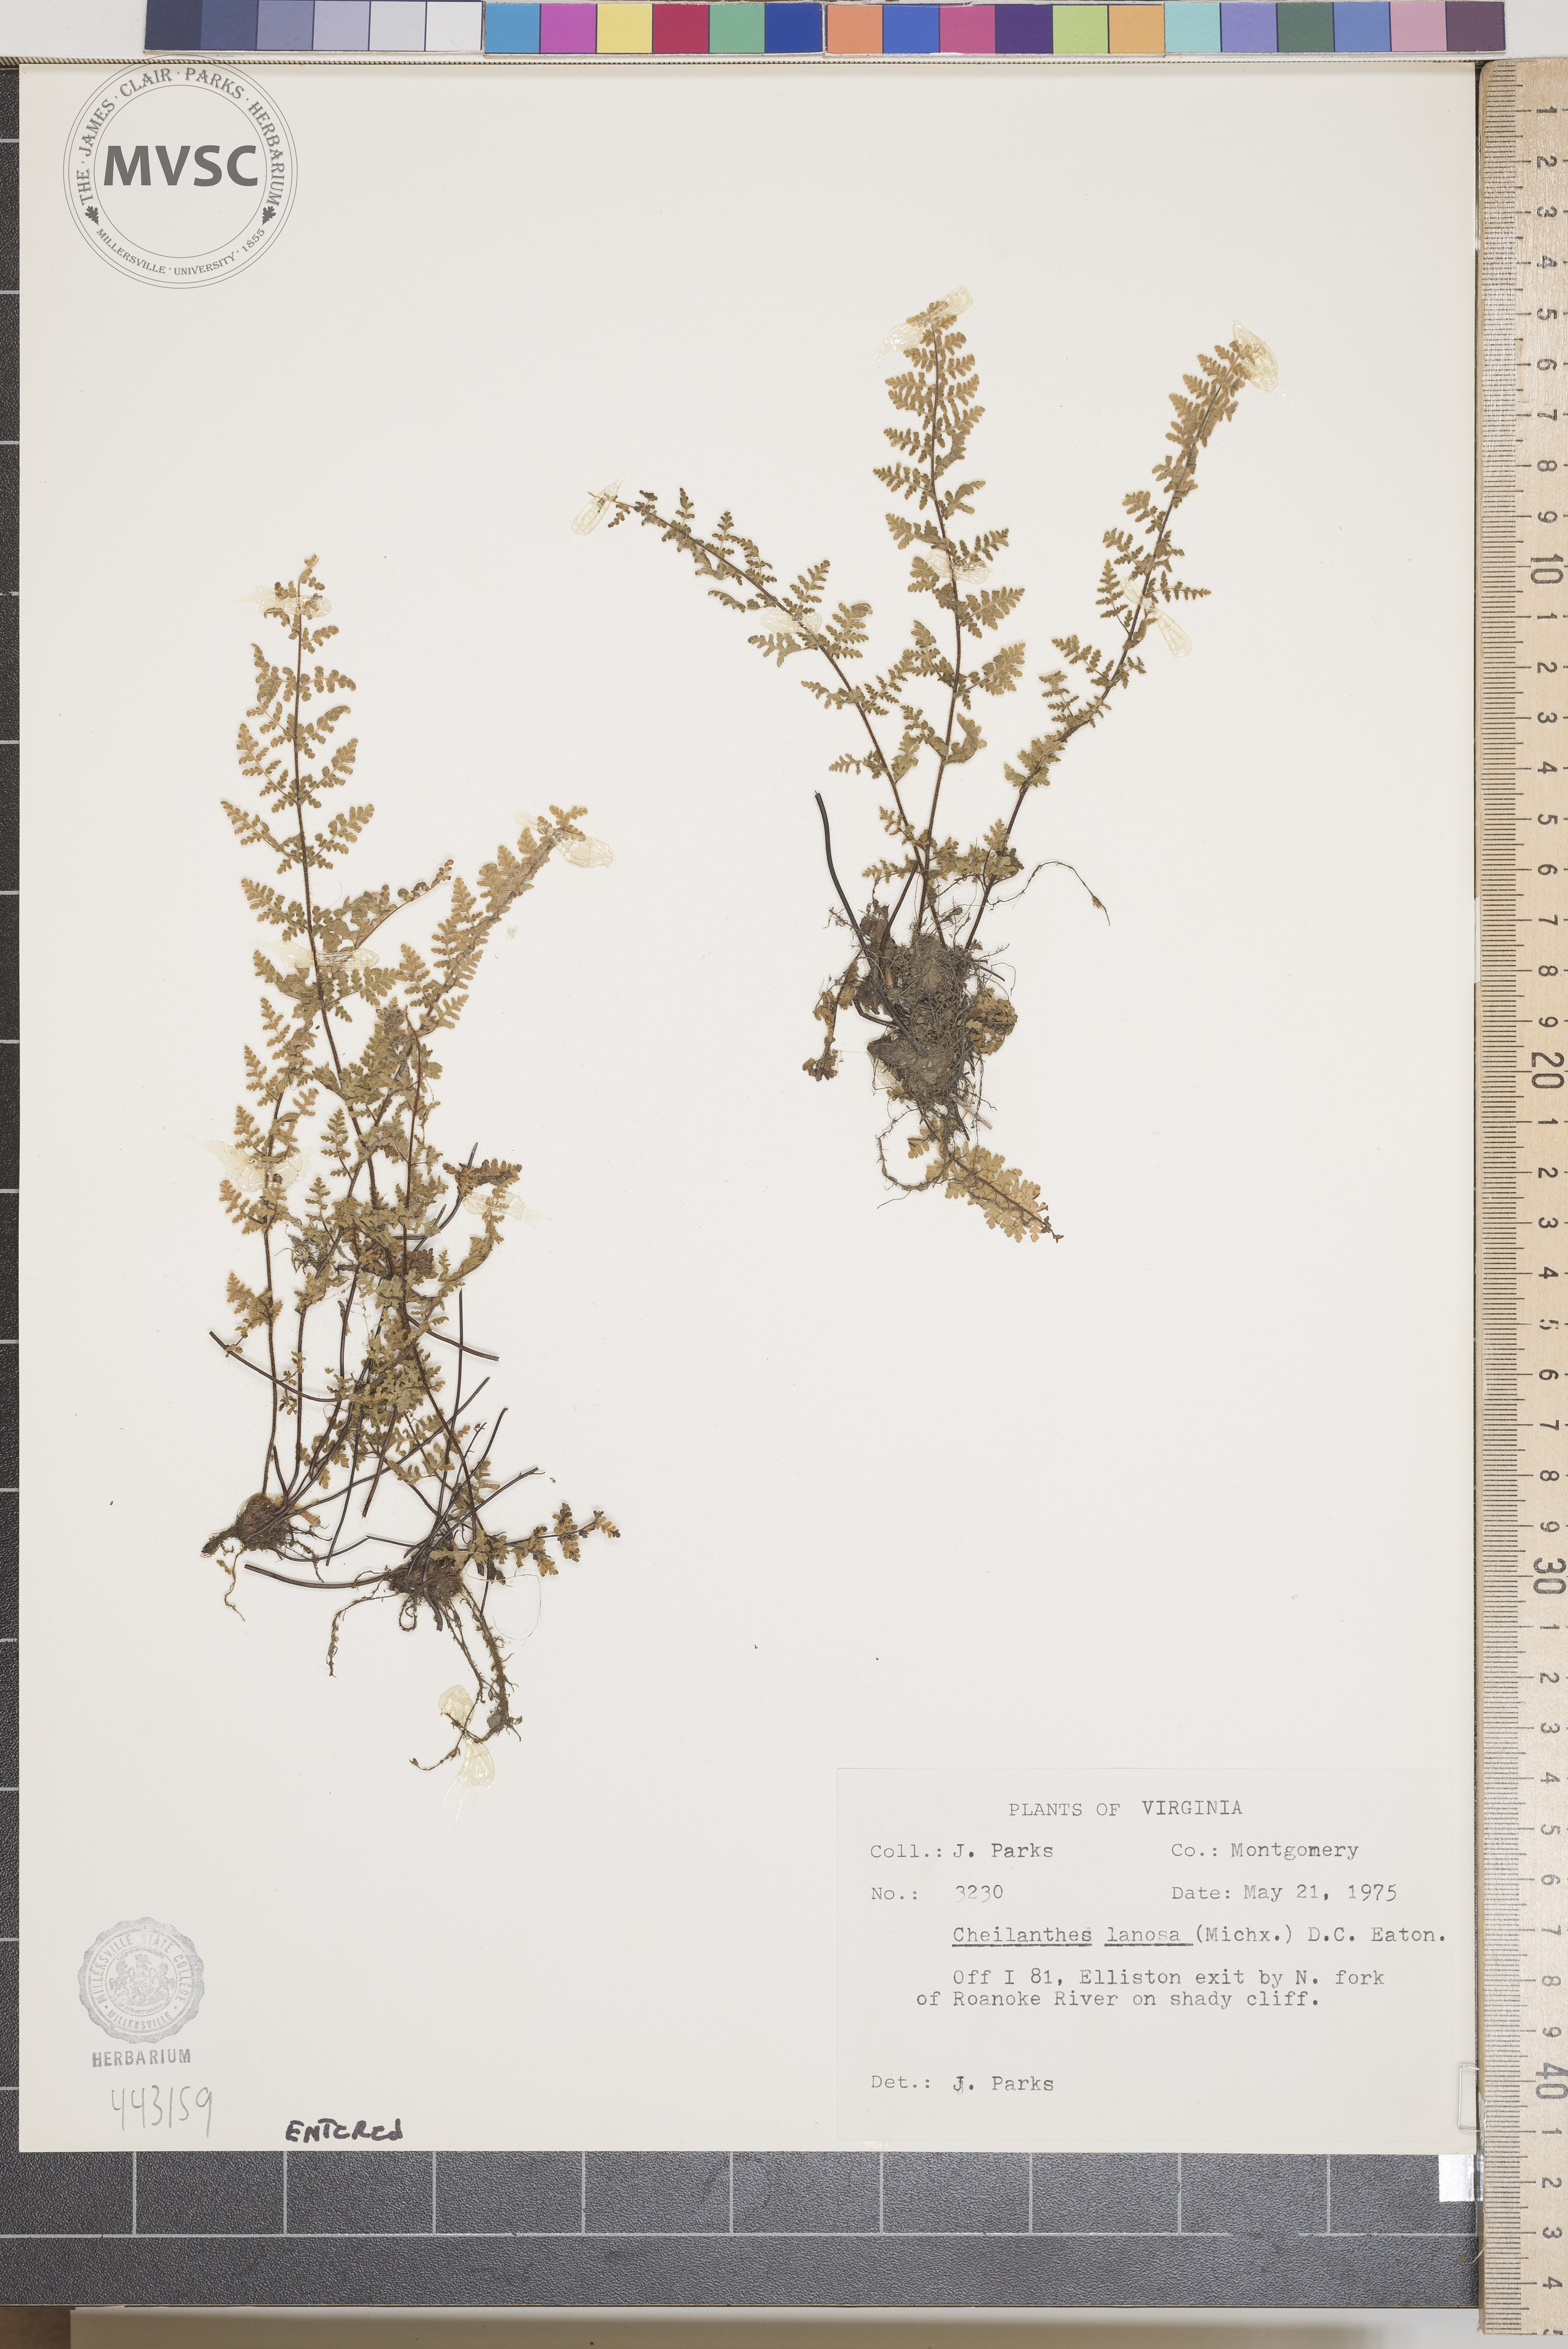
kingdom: Plantae
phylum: Tracheophyta
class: Polypodiopsida
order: Polypodiales
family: Pteridaceae
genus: Myriopteris
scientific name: Myriopteris lanosa
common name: Hairy lip fern
